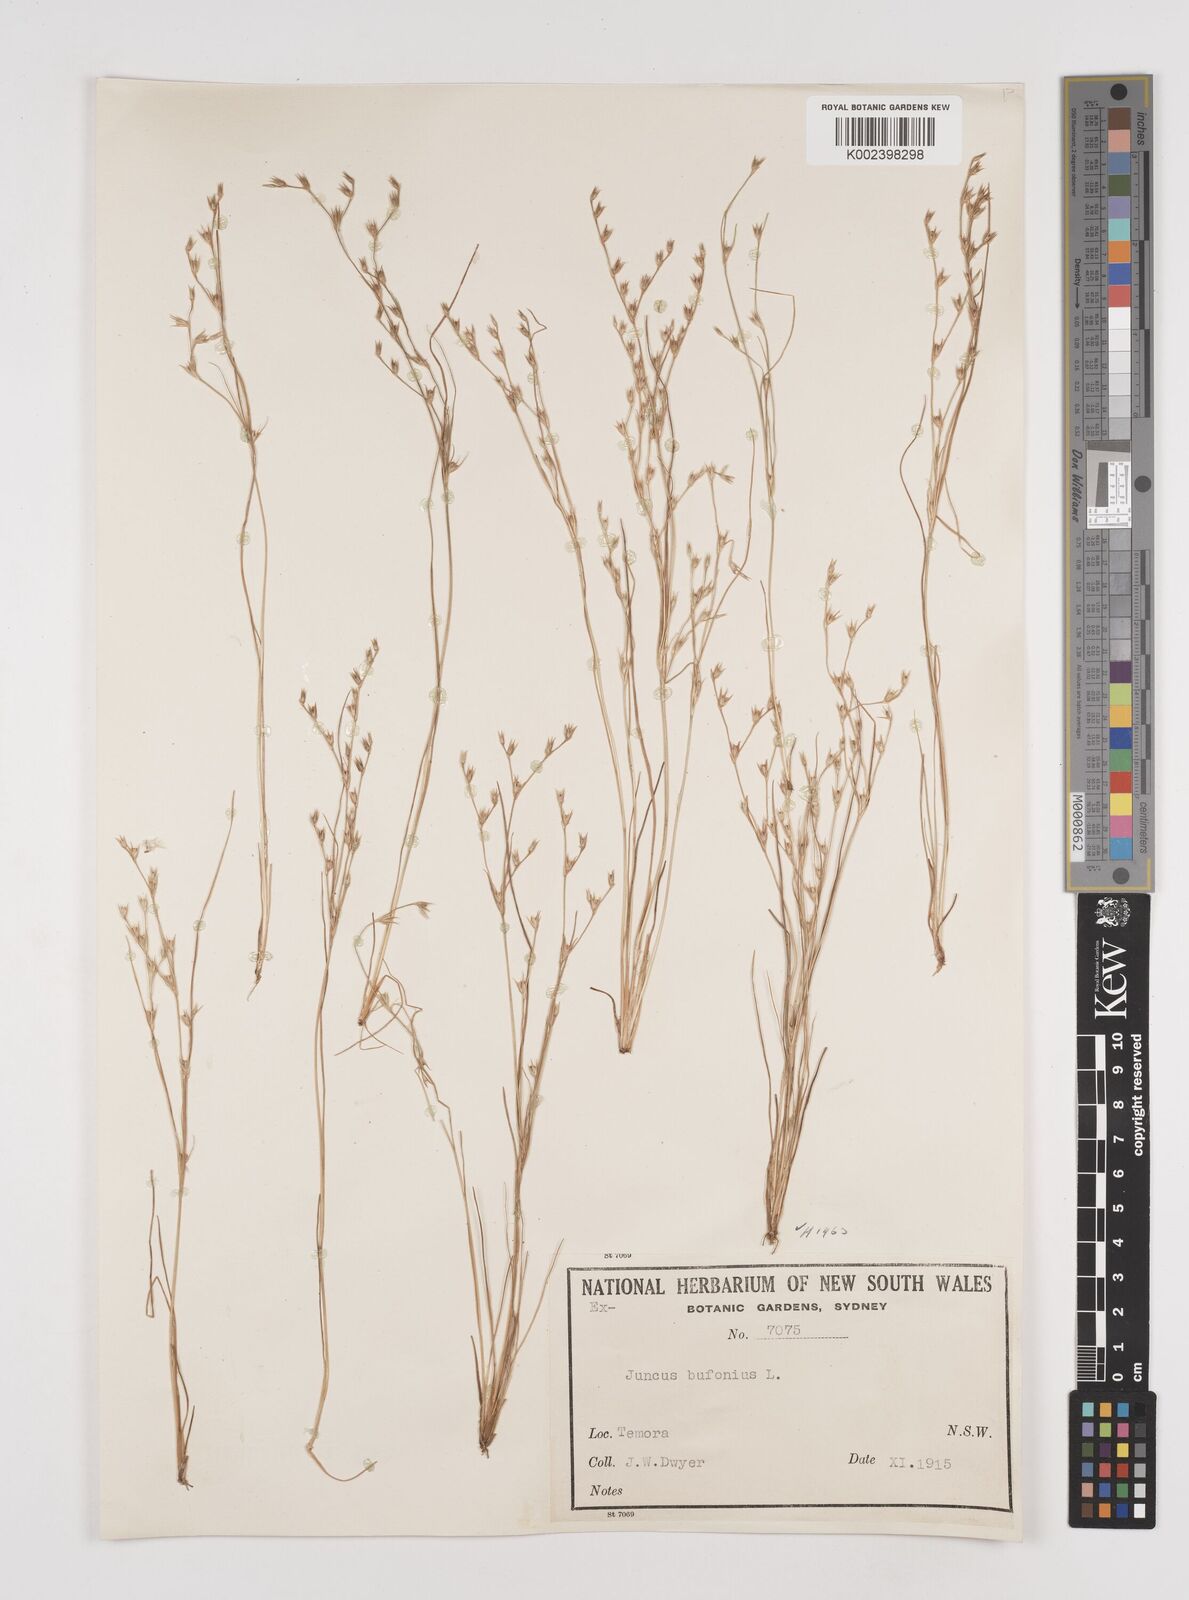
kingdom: Plantae
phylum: Tracheophyta
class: Liliopsida
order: Poales
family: Juncaceae
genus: Juncus
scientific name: Juncus bufonius
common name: Toad rush
